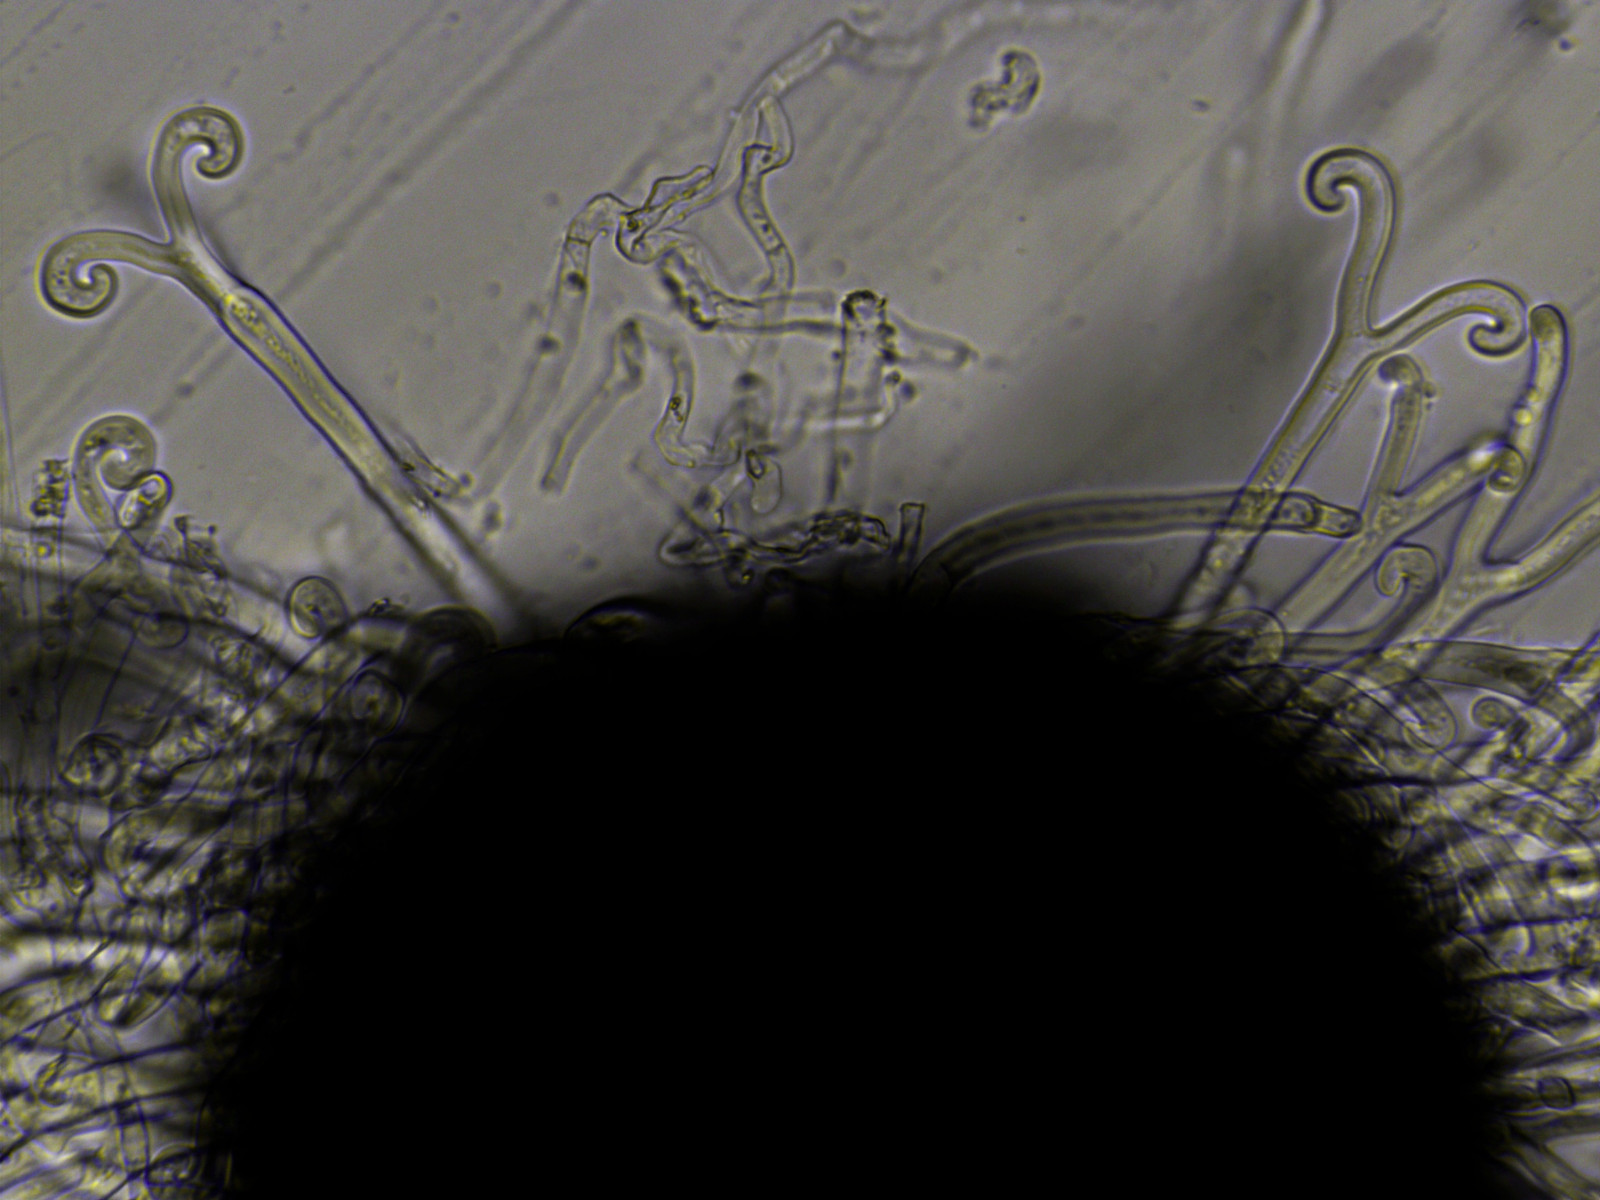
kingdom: Fungi
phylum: Ascomycota
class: Leotiomycetes
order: Helotiales
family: Erysiphaceae
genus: Sawadaea
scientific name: Sawadaea bicornis
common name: Maple mildew
